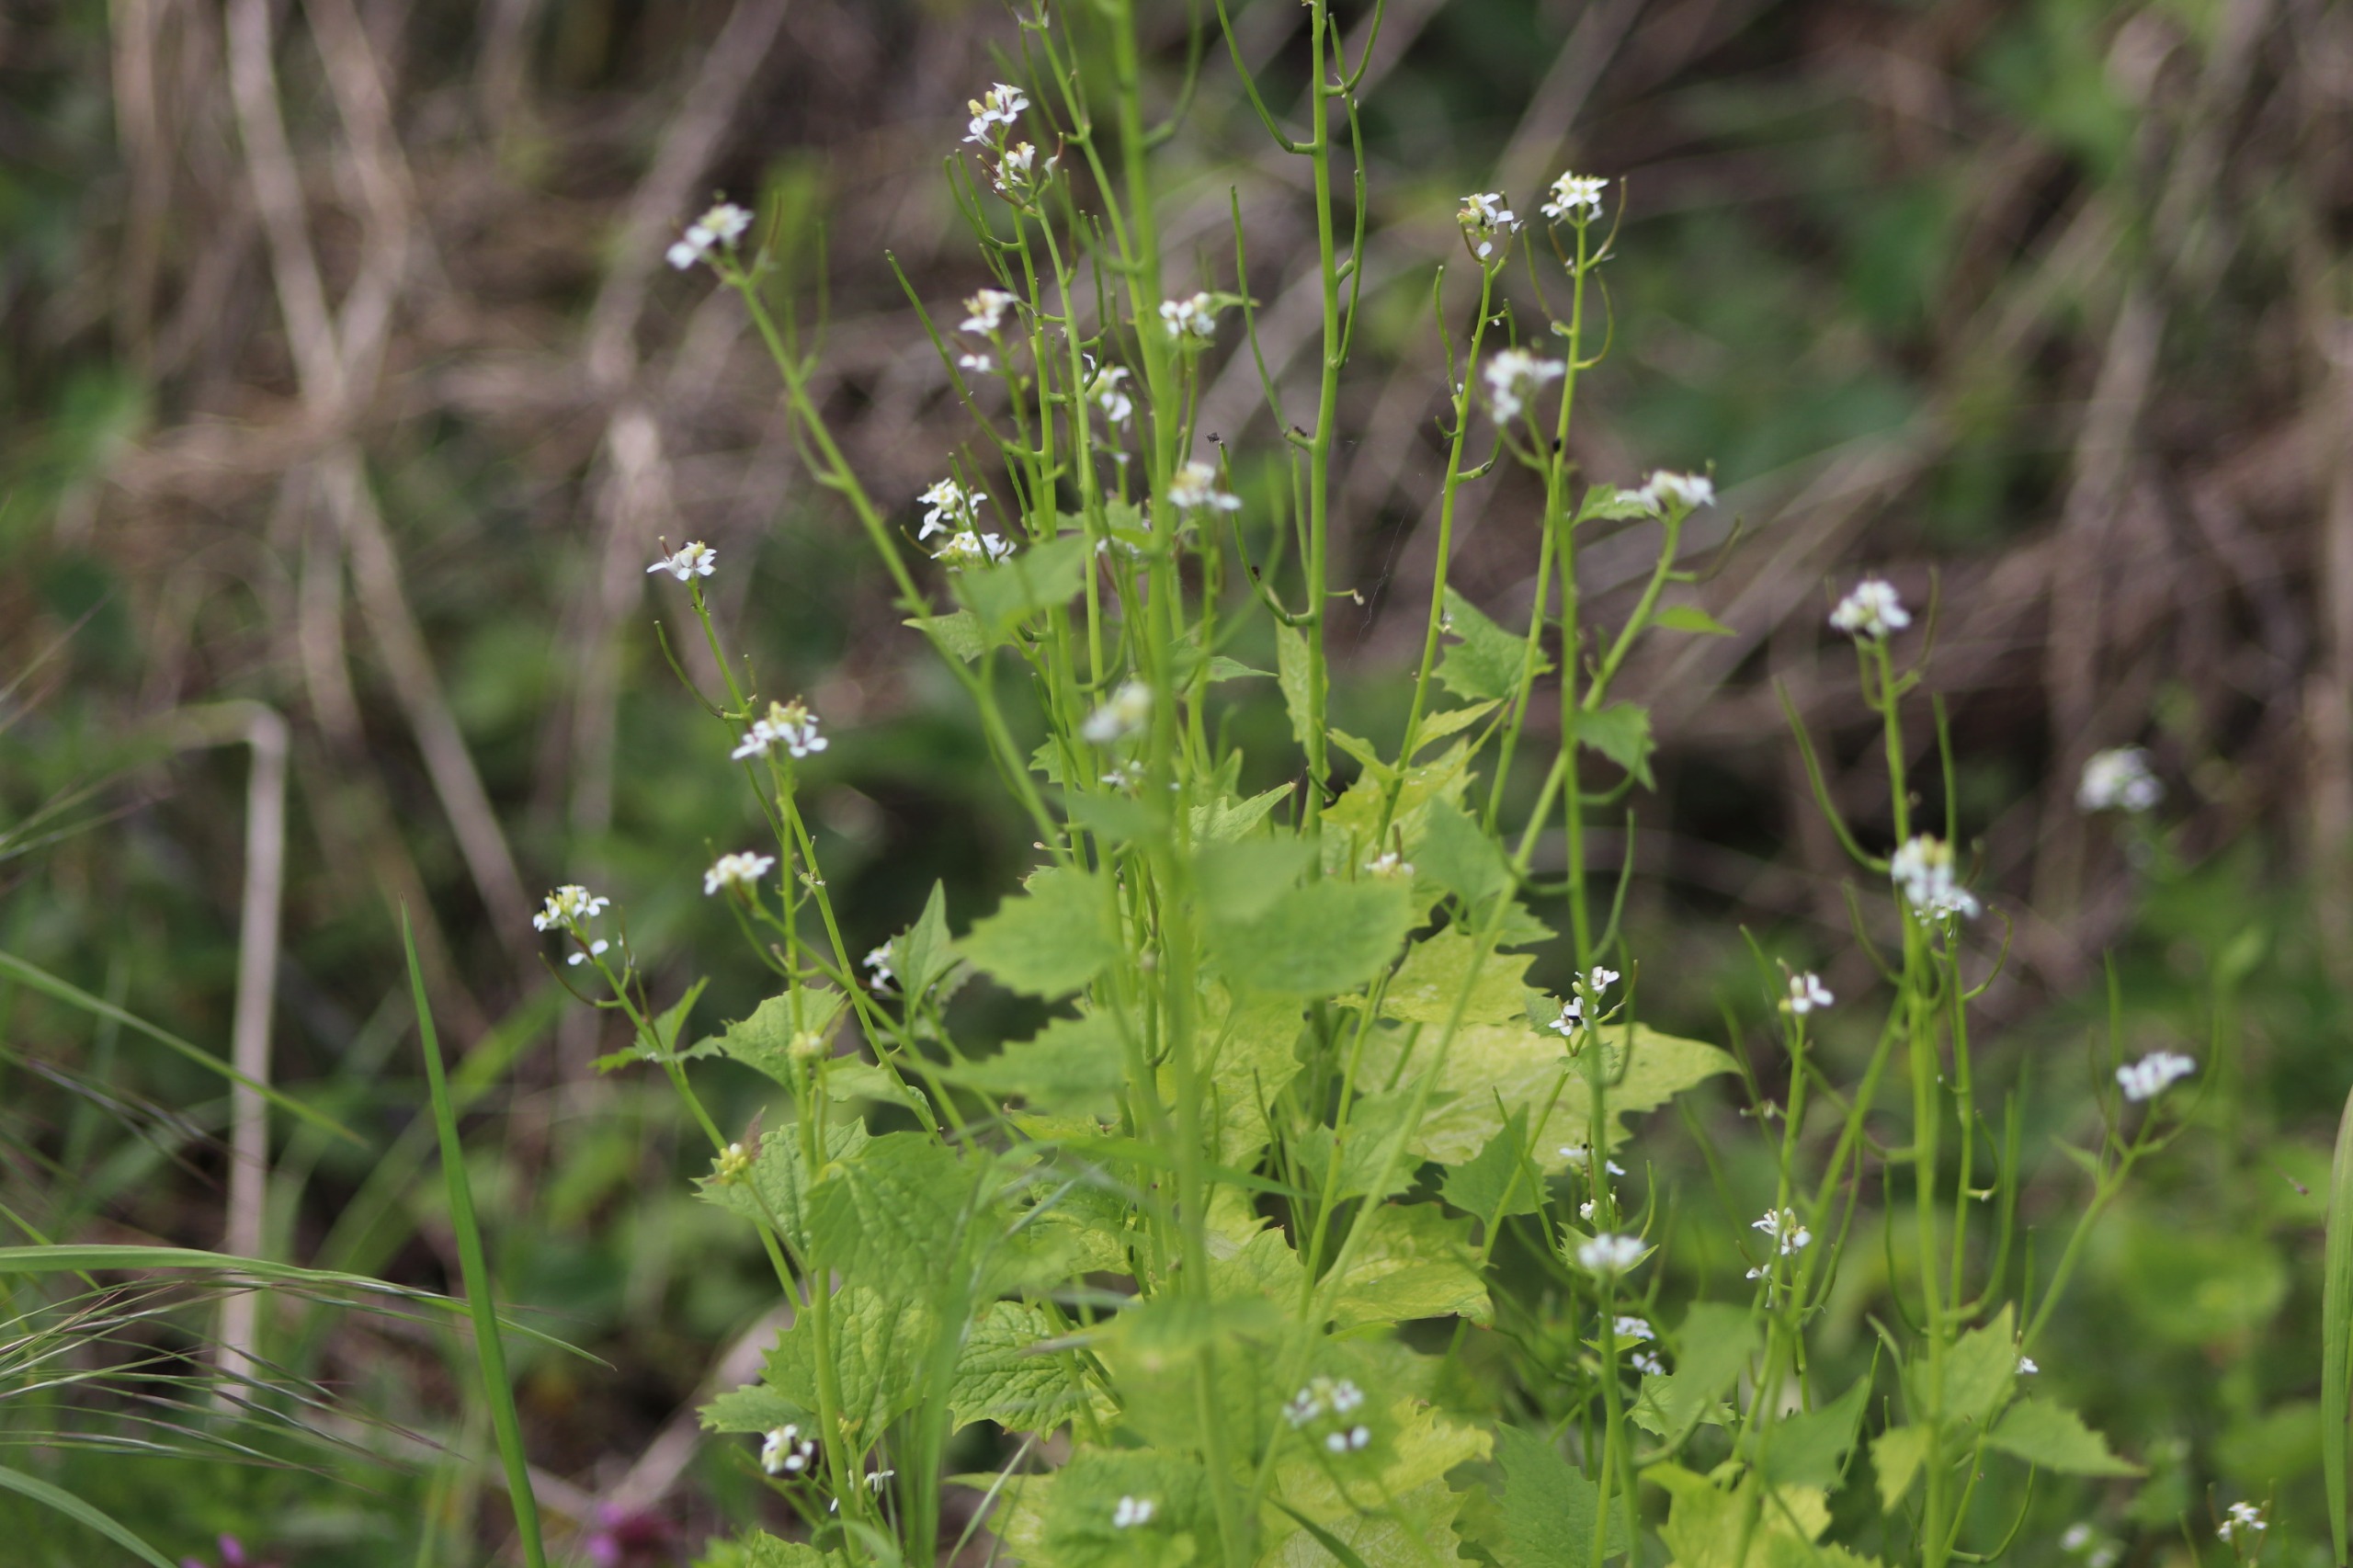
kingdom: Plantae
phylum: Tracheophyta
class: Magnoliopsida
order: Brassicales
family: Brassicaceae
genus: Alliaria
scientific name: Alliaria petiolata
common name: Løgkarse
